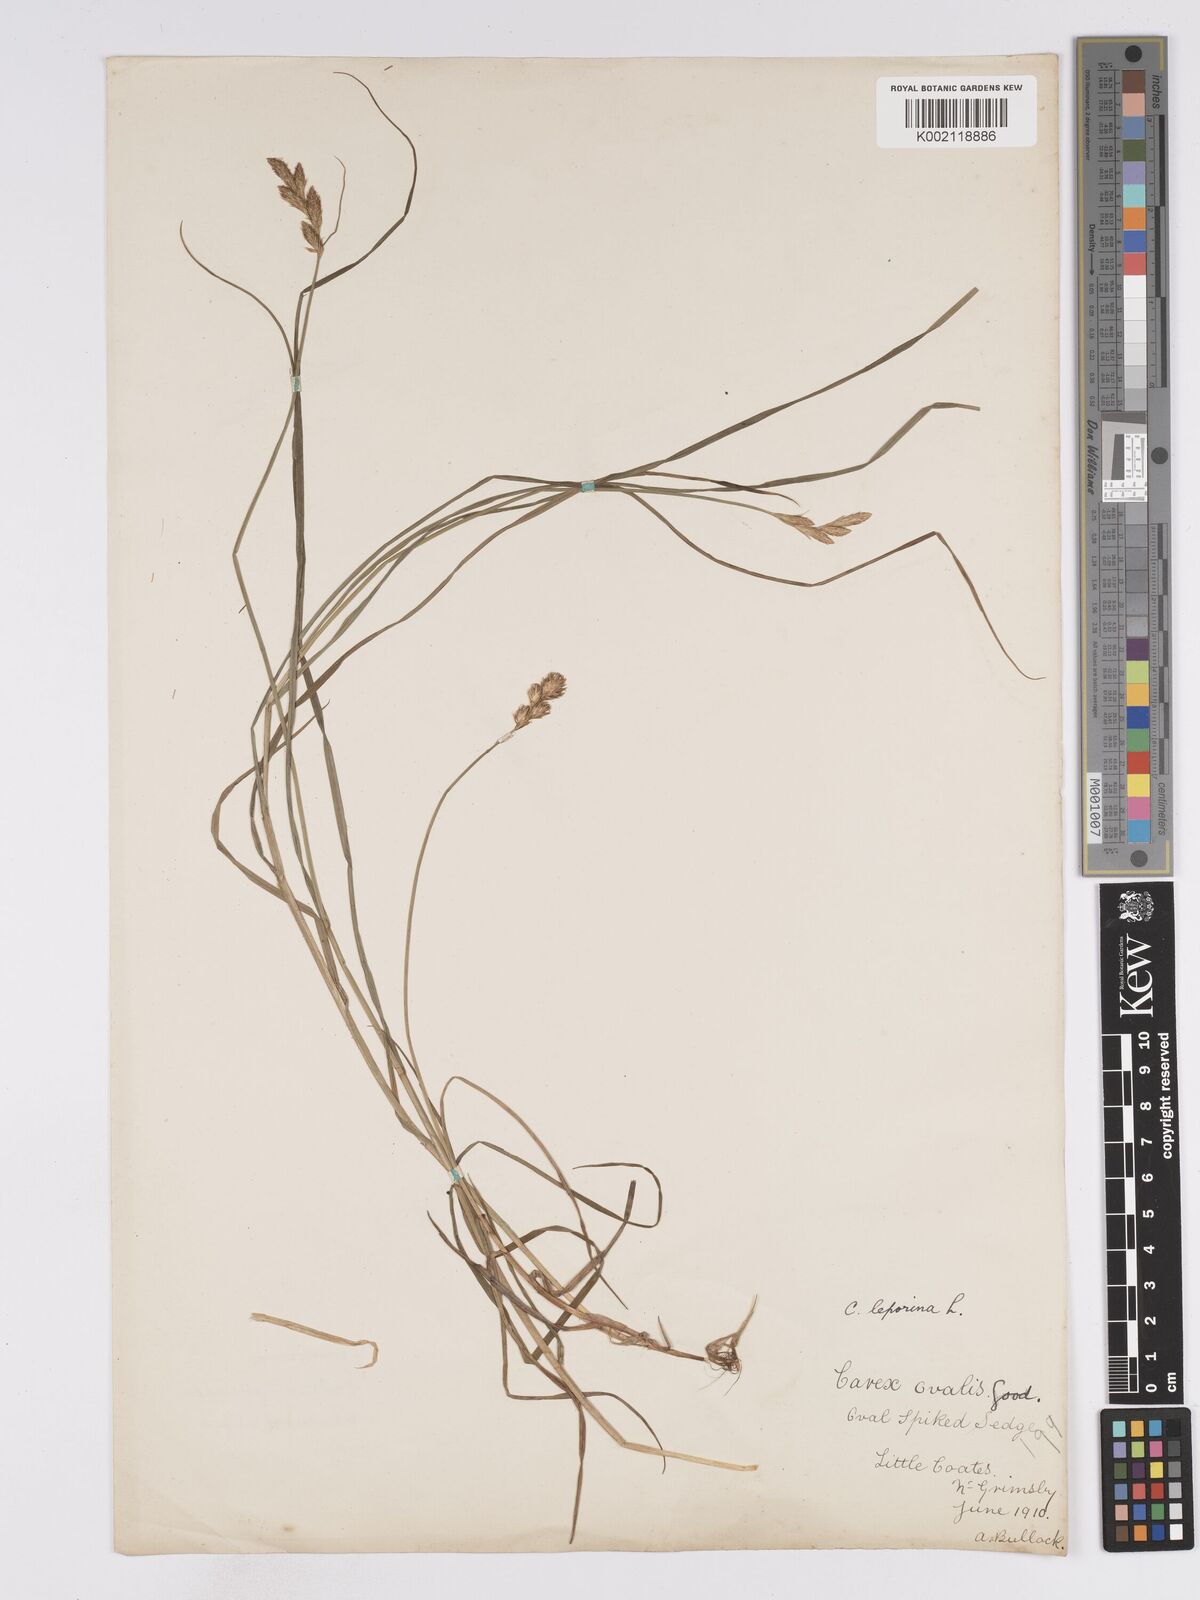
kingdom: Plantae
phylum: Tracheophyta
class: Liliopsida
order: Poales
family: Cyperaceae
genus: Carex
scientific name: Carex leporina
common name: Oval sedge
